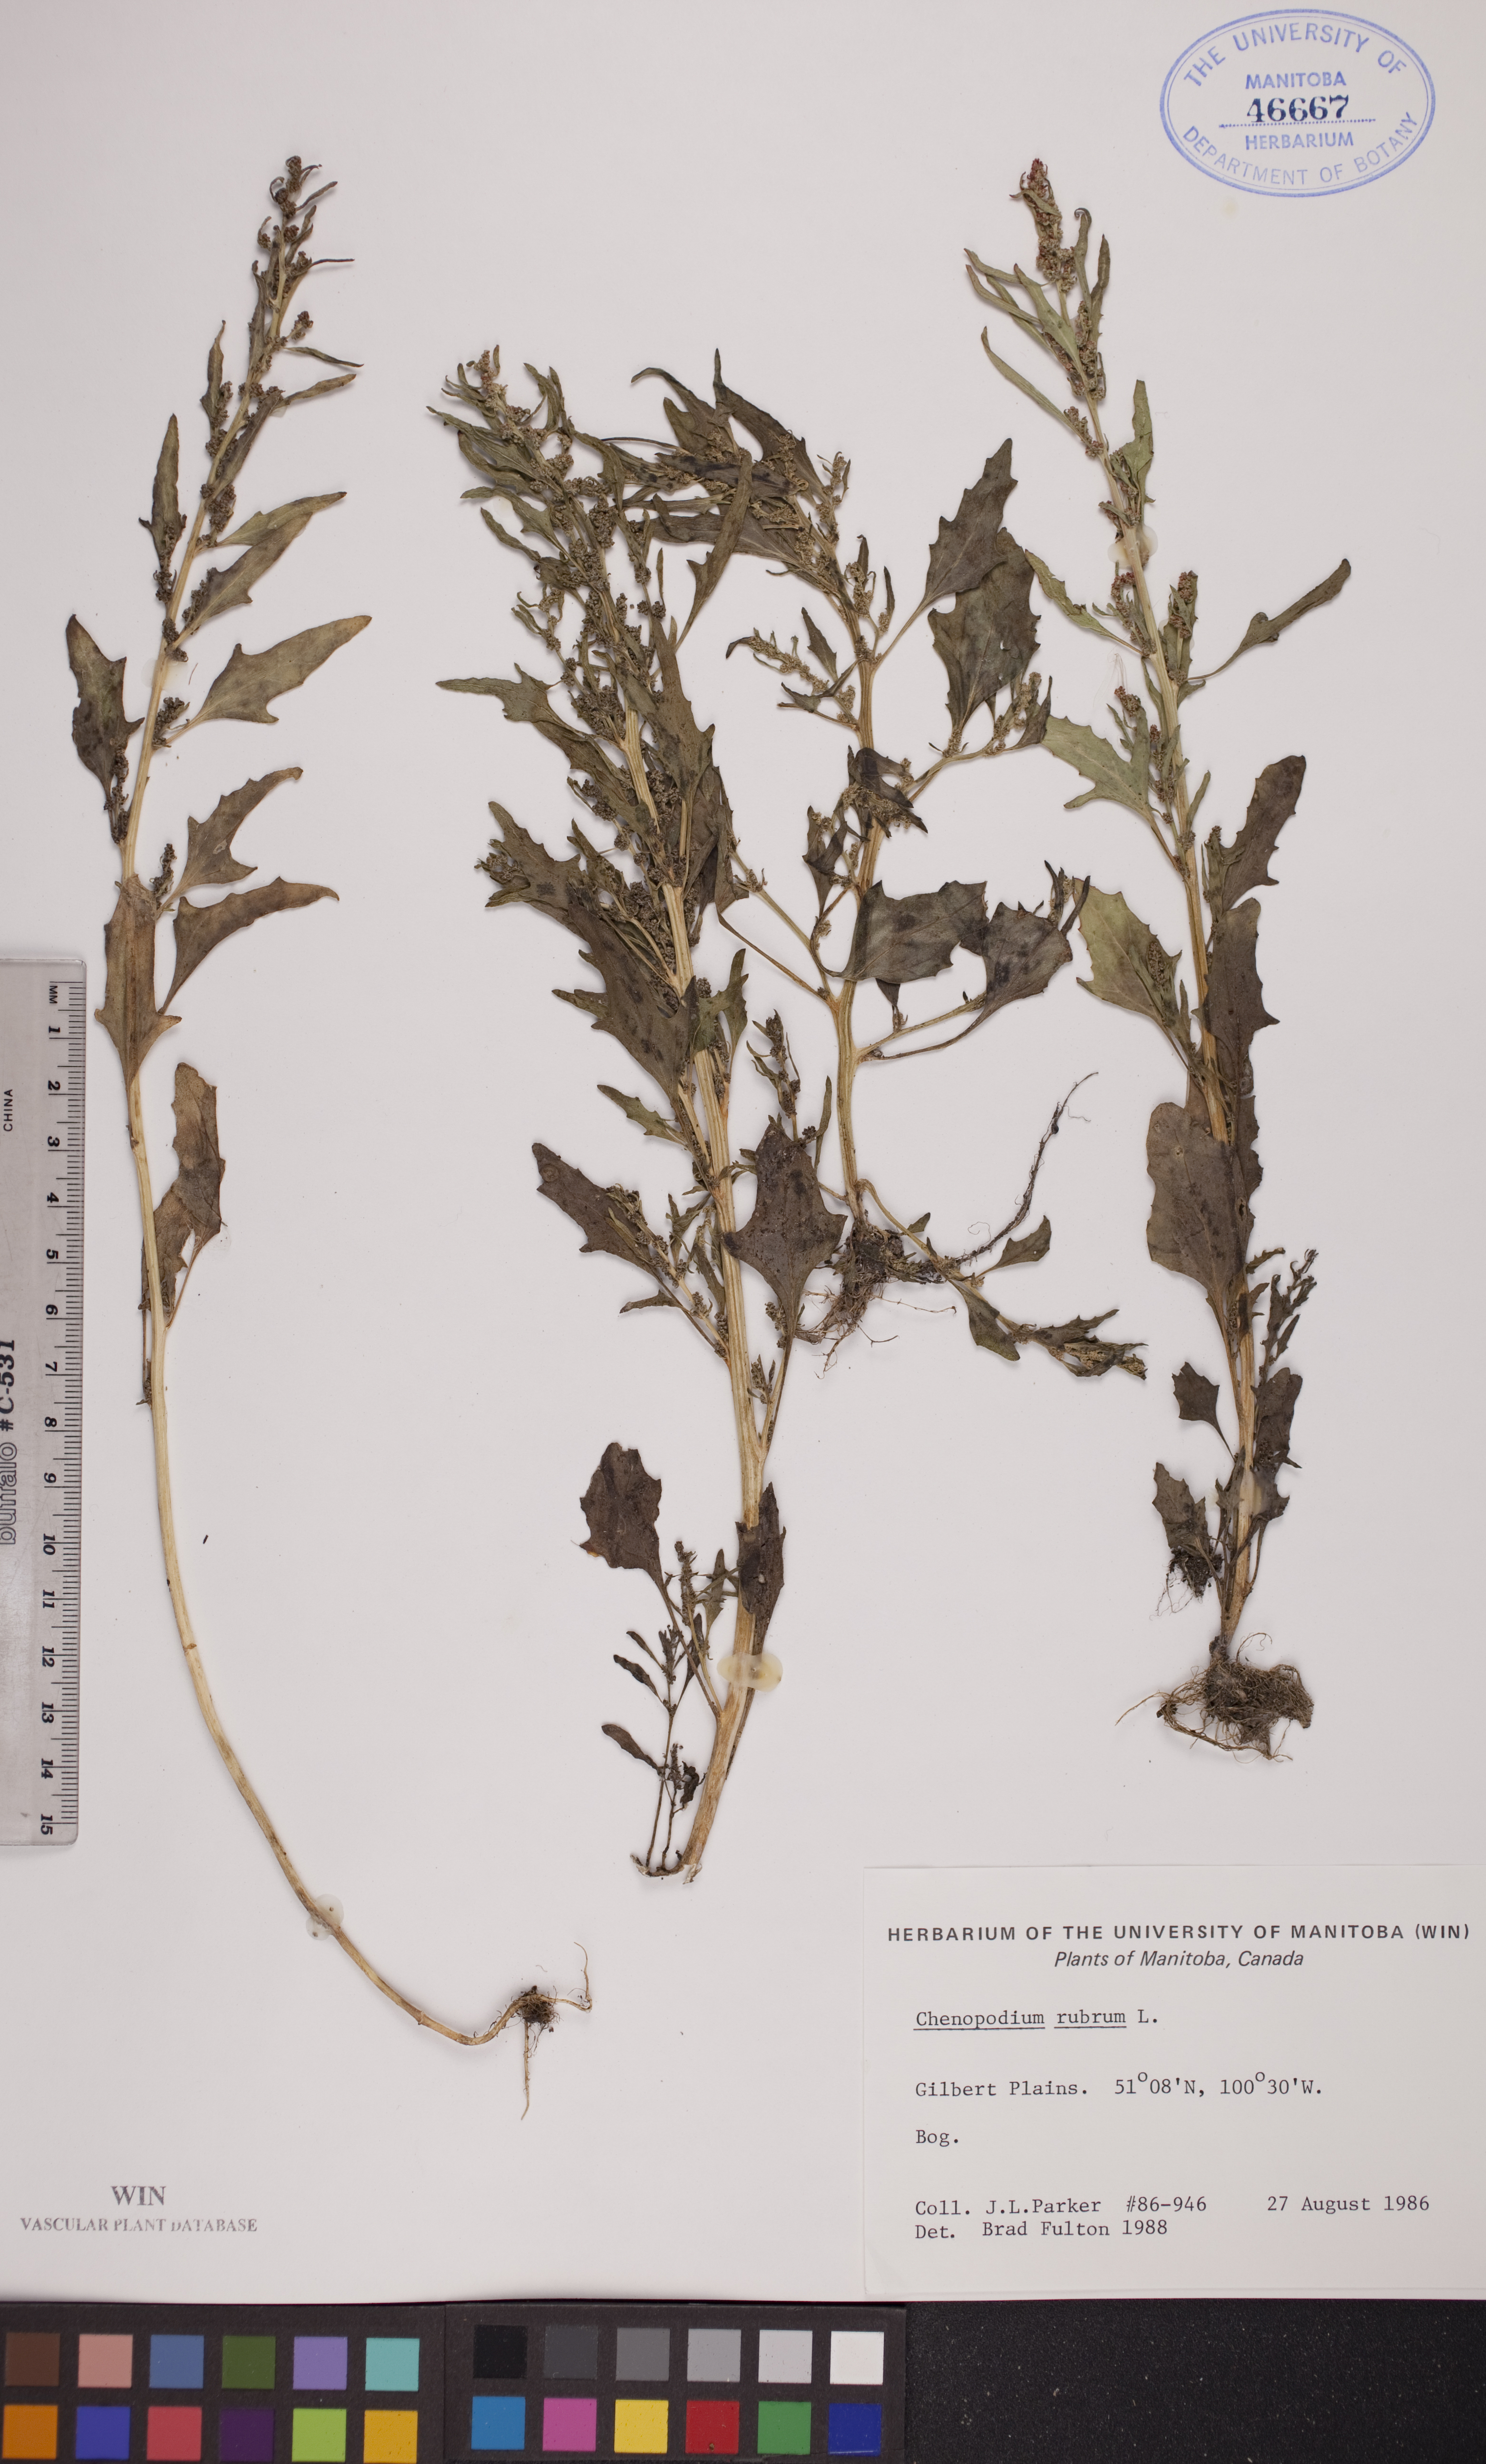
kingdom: Plantae
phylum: Tracheophyta
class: Magnoliopsida
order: Caryophyllales
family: Amaranthaceae
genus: Oxybasis
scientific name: Oxybasis rubra
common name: Red goosefoot
